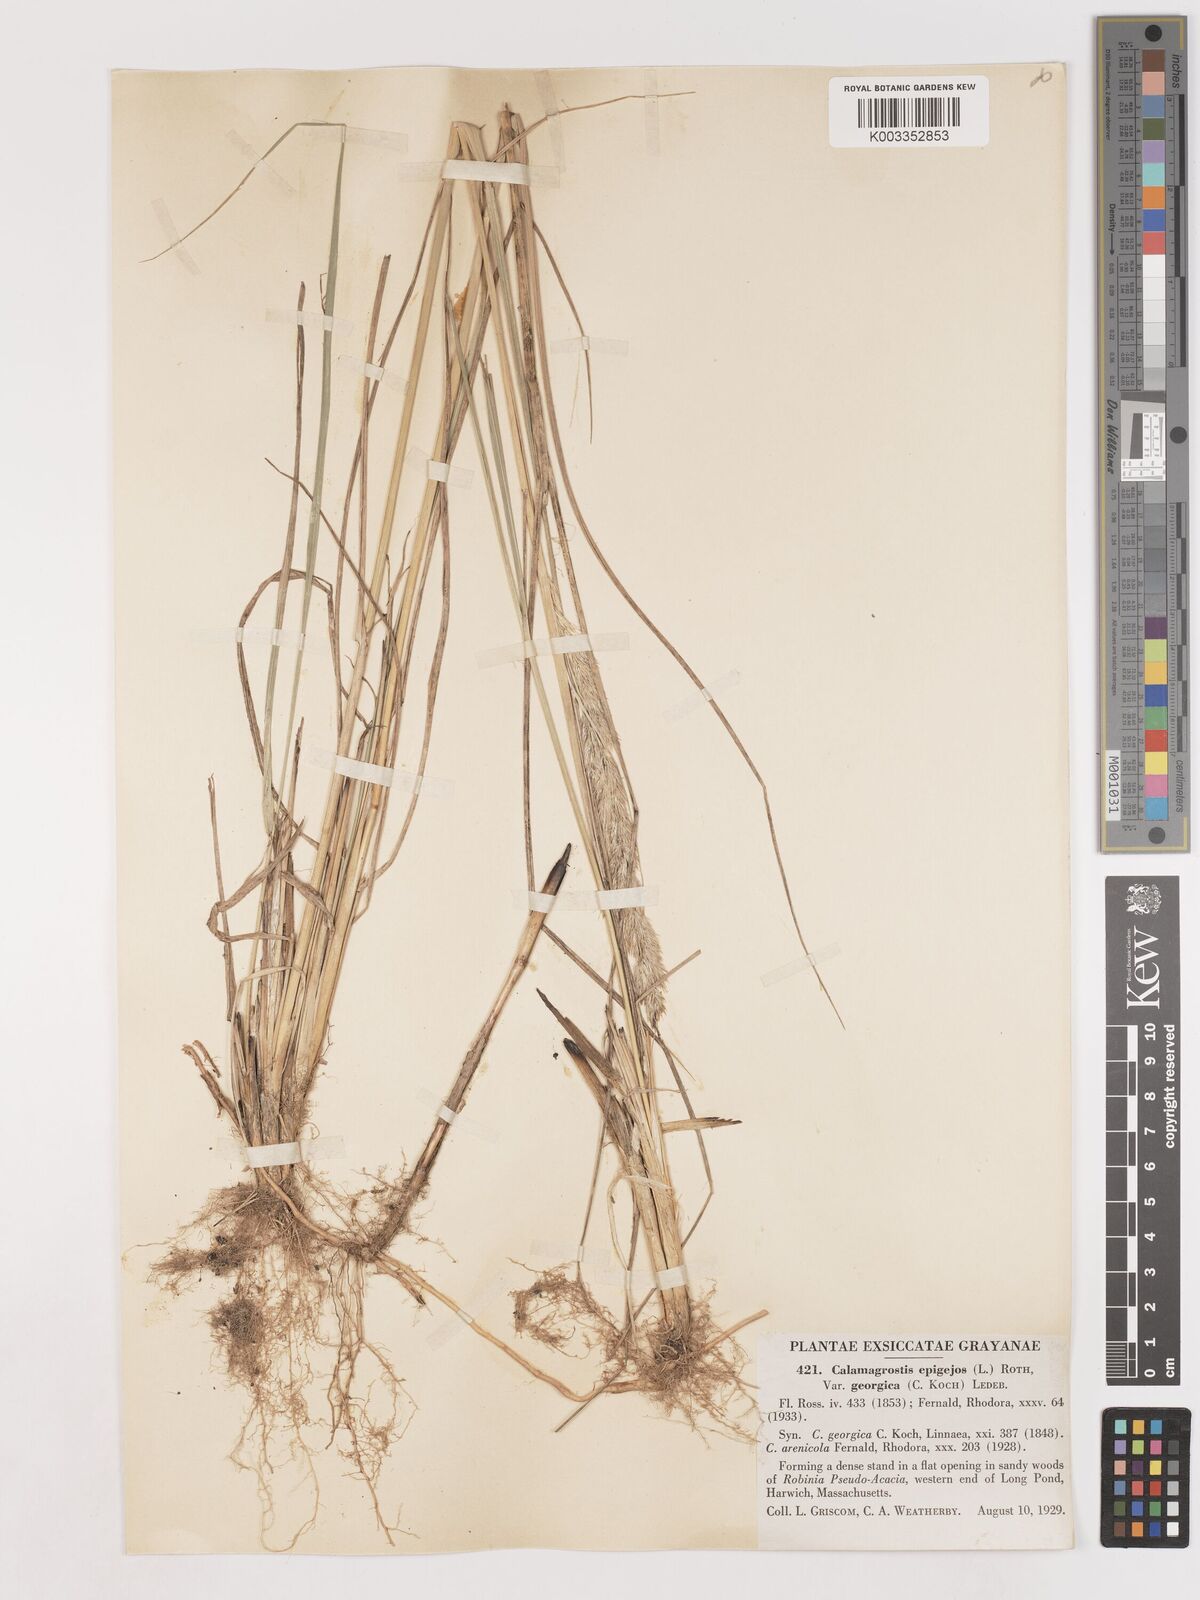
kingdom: Plantae
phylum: Tracheophyta
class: Liliopsida
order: Poales
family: Poaceae
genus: Calamagrostis
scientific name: Calamagrostis epigejos
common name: Wood small-reed
